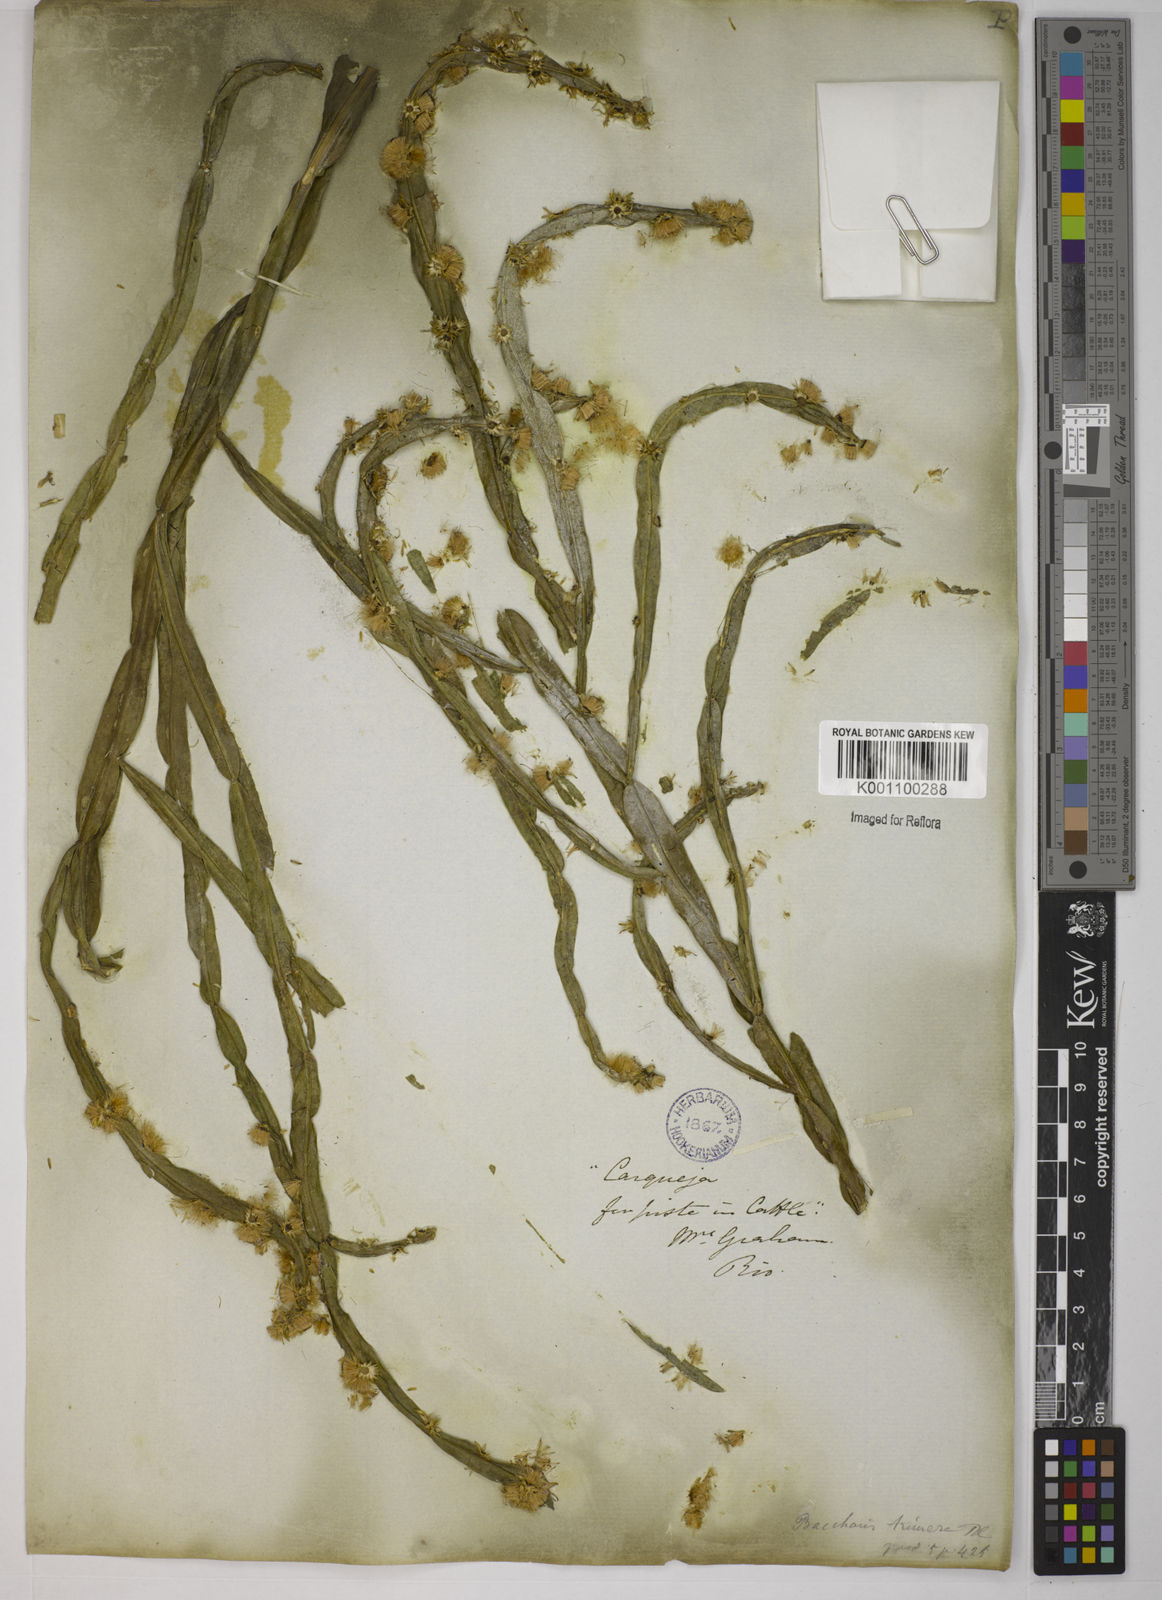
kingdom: Plantae
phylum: Tracheophyta
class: Magnoliopsida
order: Asterales
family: Asteraceae
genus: Baccharis
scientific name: Baccharis trimera
